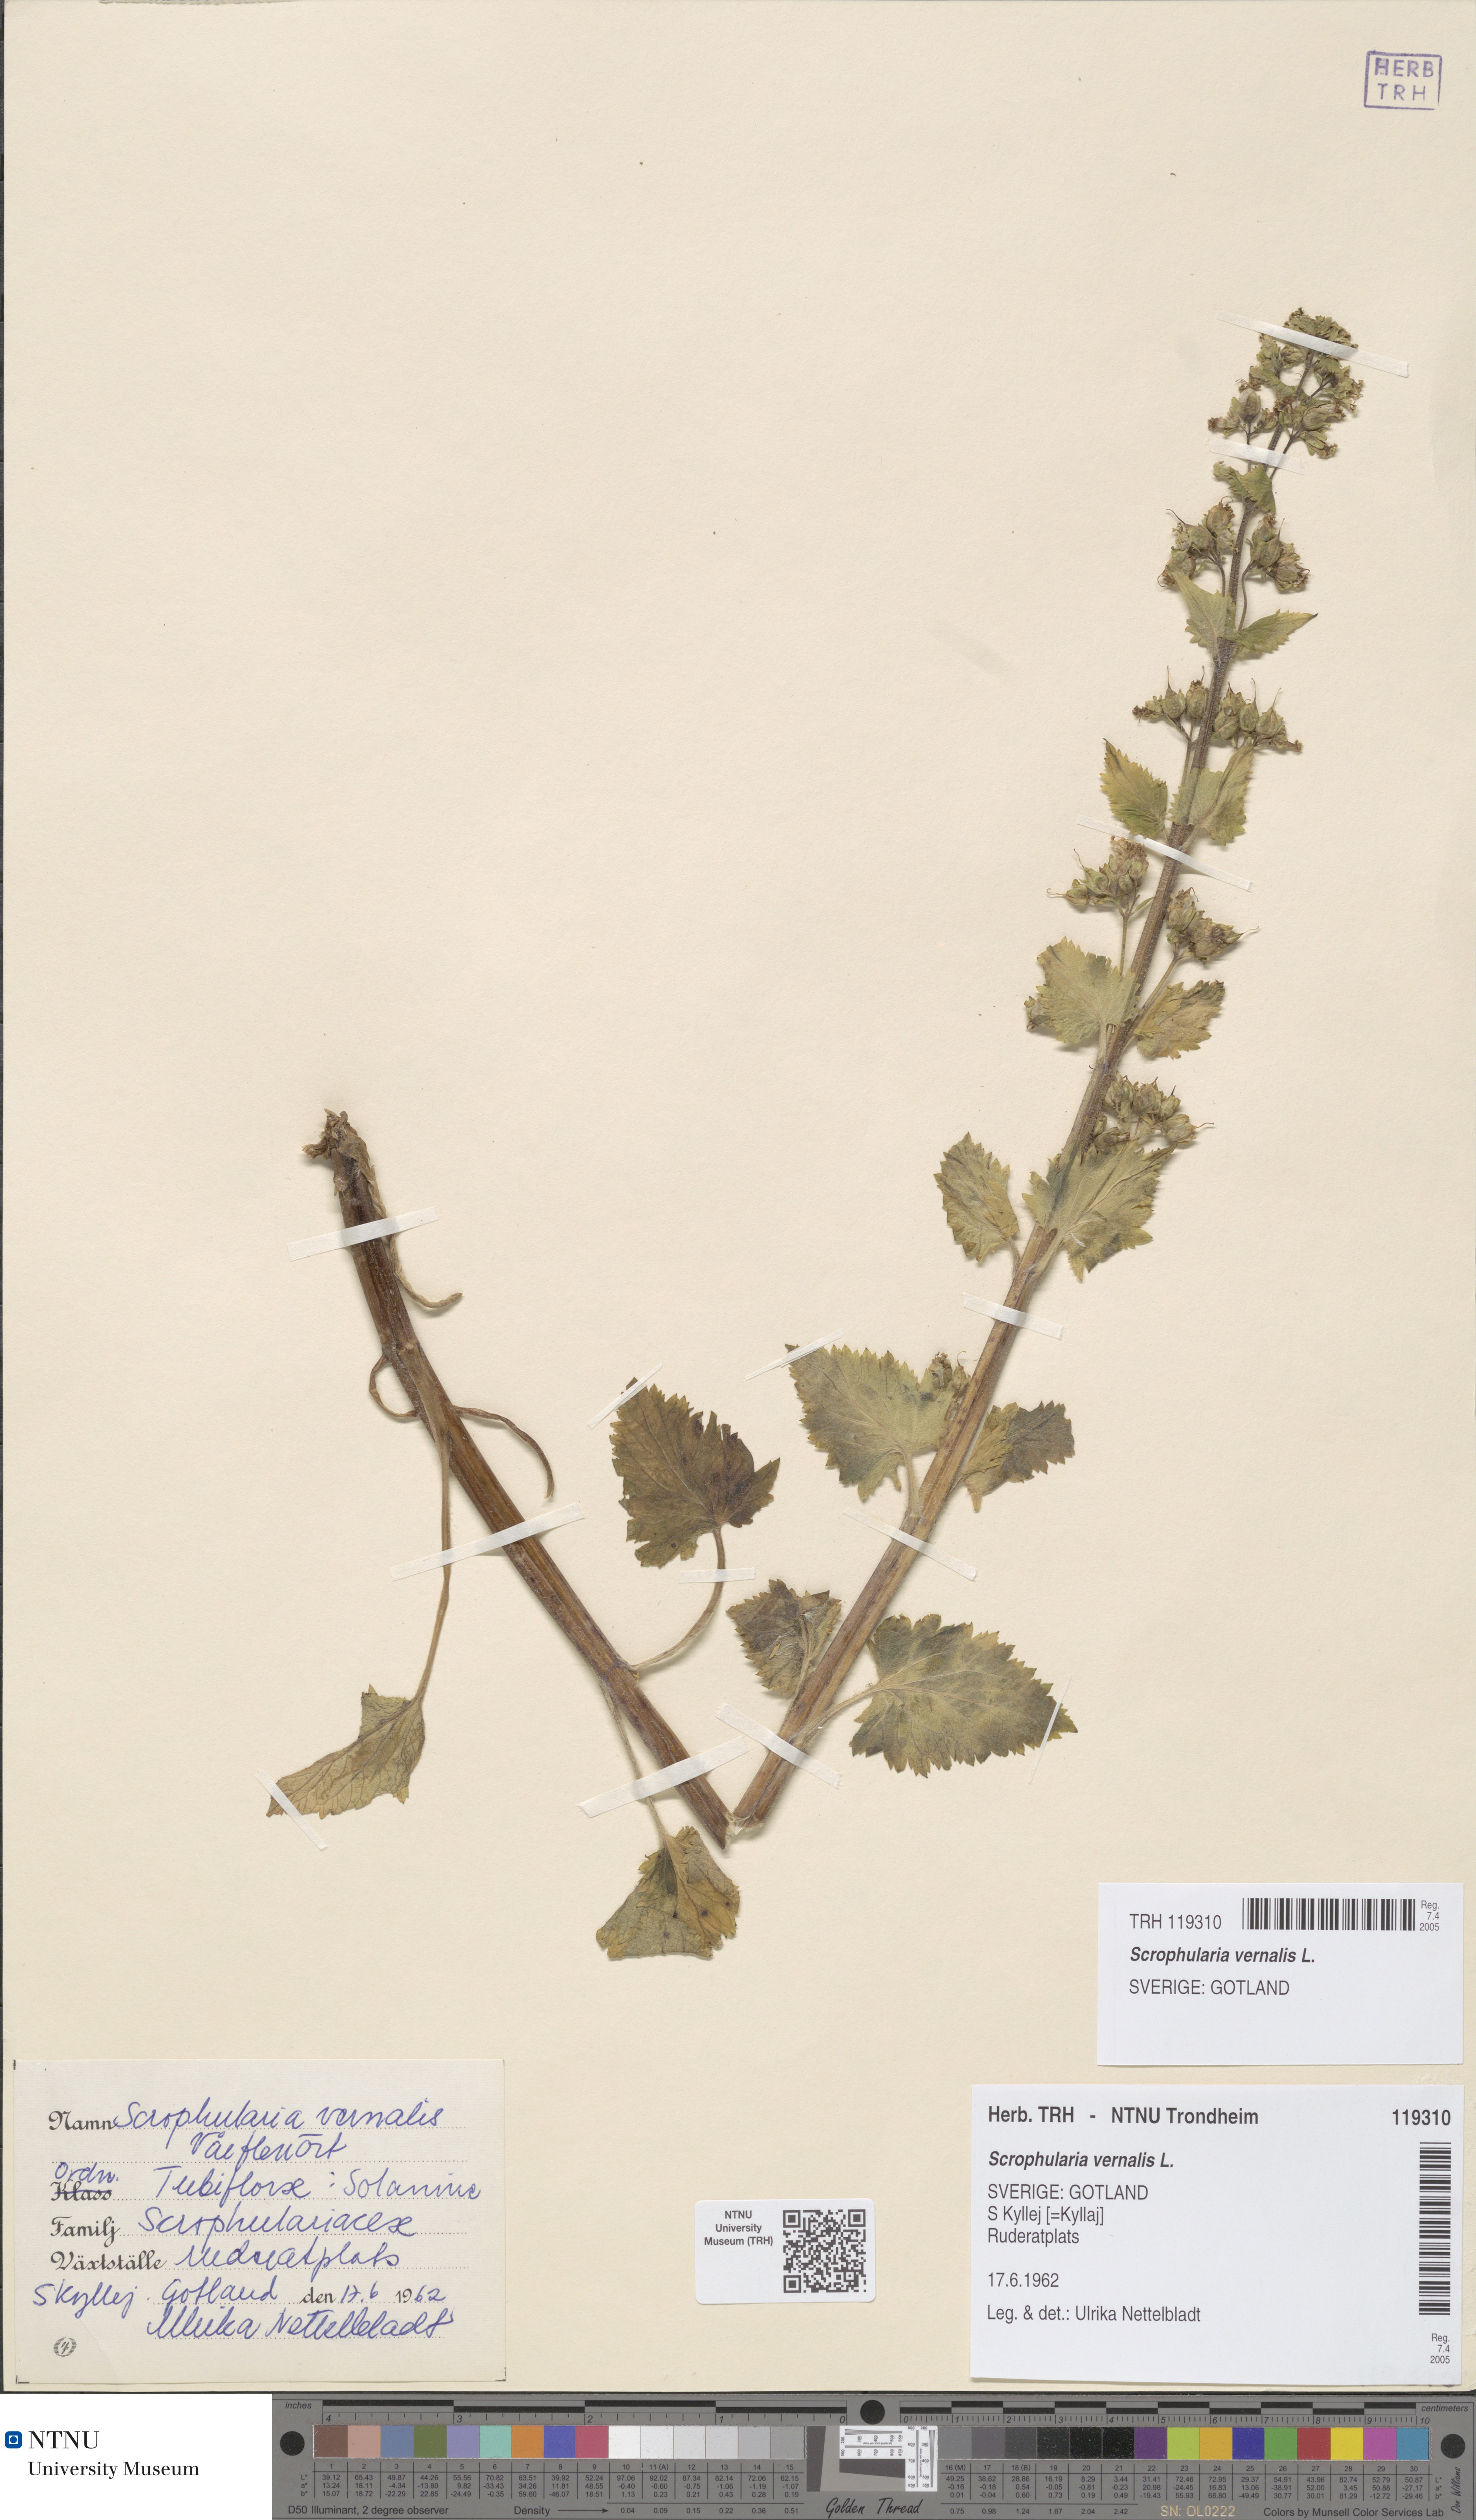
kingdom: Plantae
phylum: Tracheophyta
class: Magnoliopsida
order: Lamiales
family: Scrophulariaceae
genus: Scrophularia
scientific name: Scrophularia vernalis
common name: Yellow figwort
